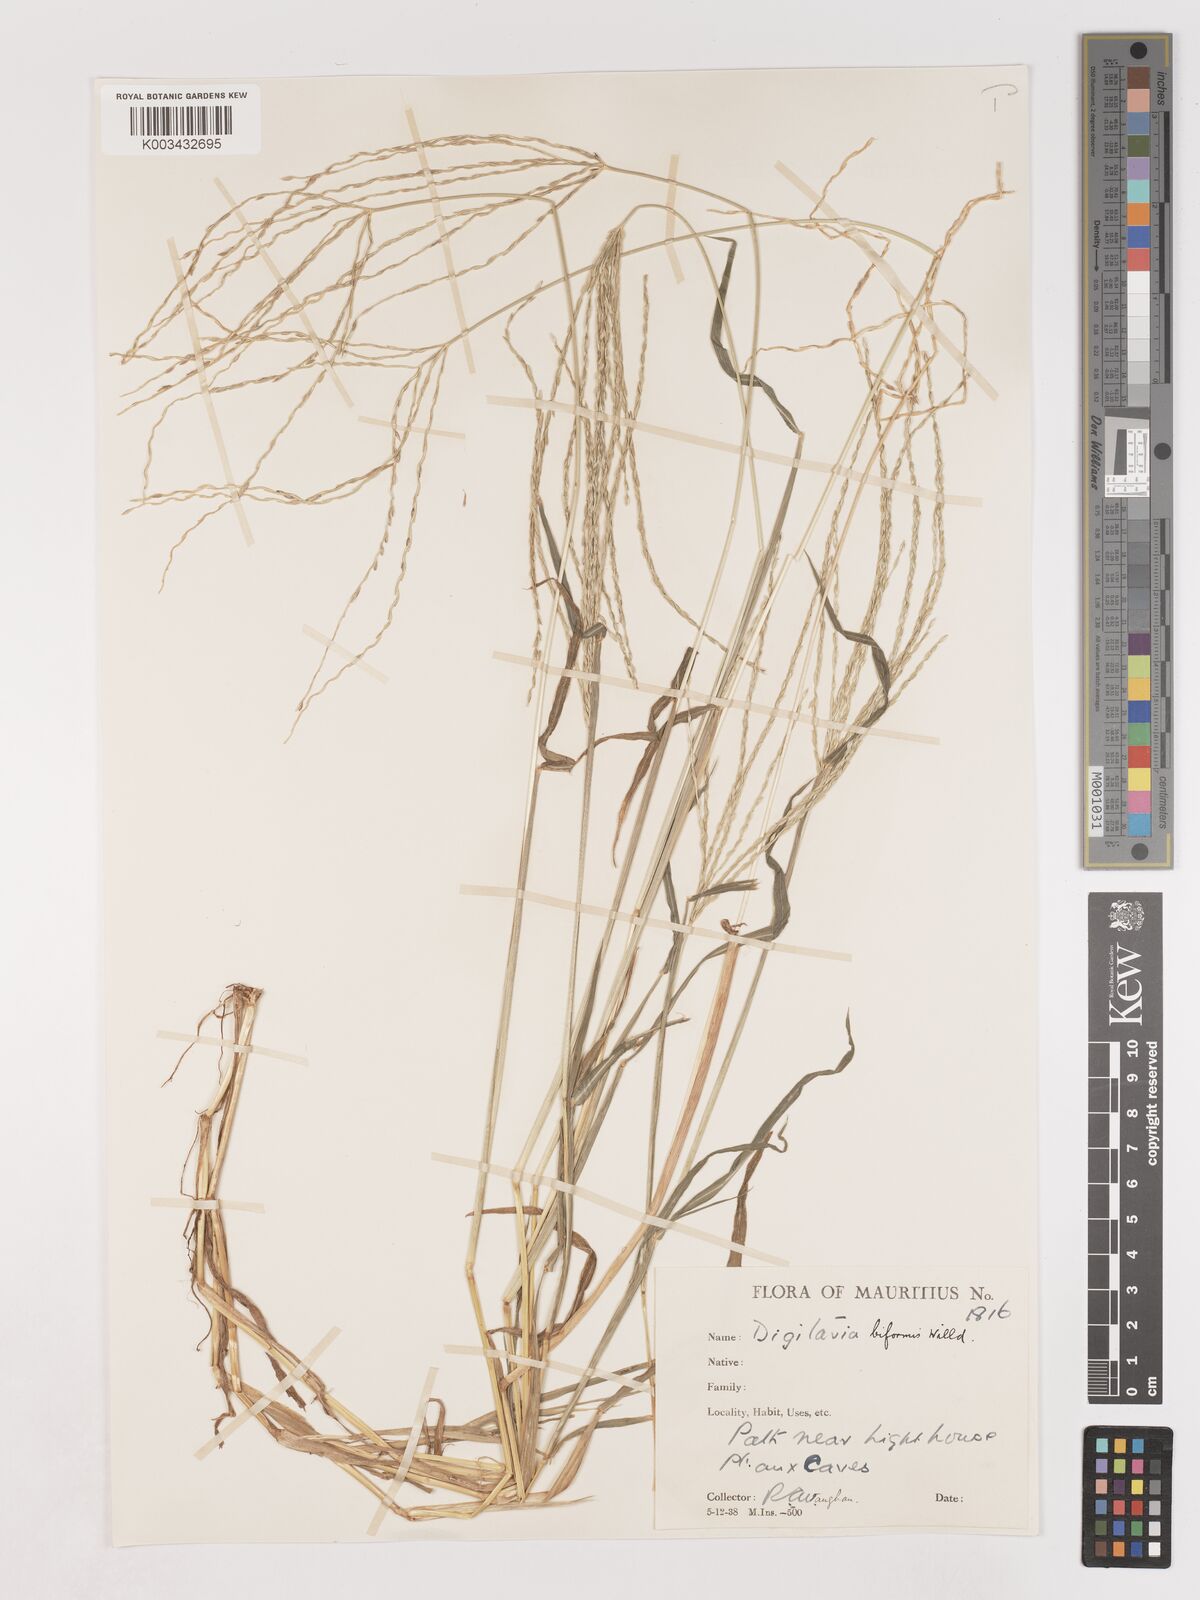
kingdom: Plantae
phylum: Tracheophyta
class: Liliopsida
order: Poales
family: Poaceae
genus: Digitaria
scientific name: Digitaria ciliaris
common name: Tropical finger-grass
